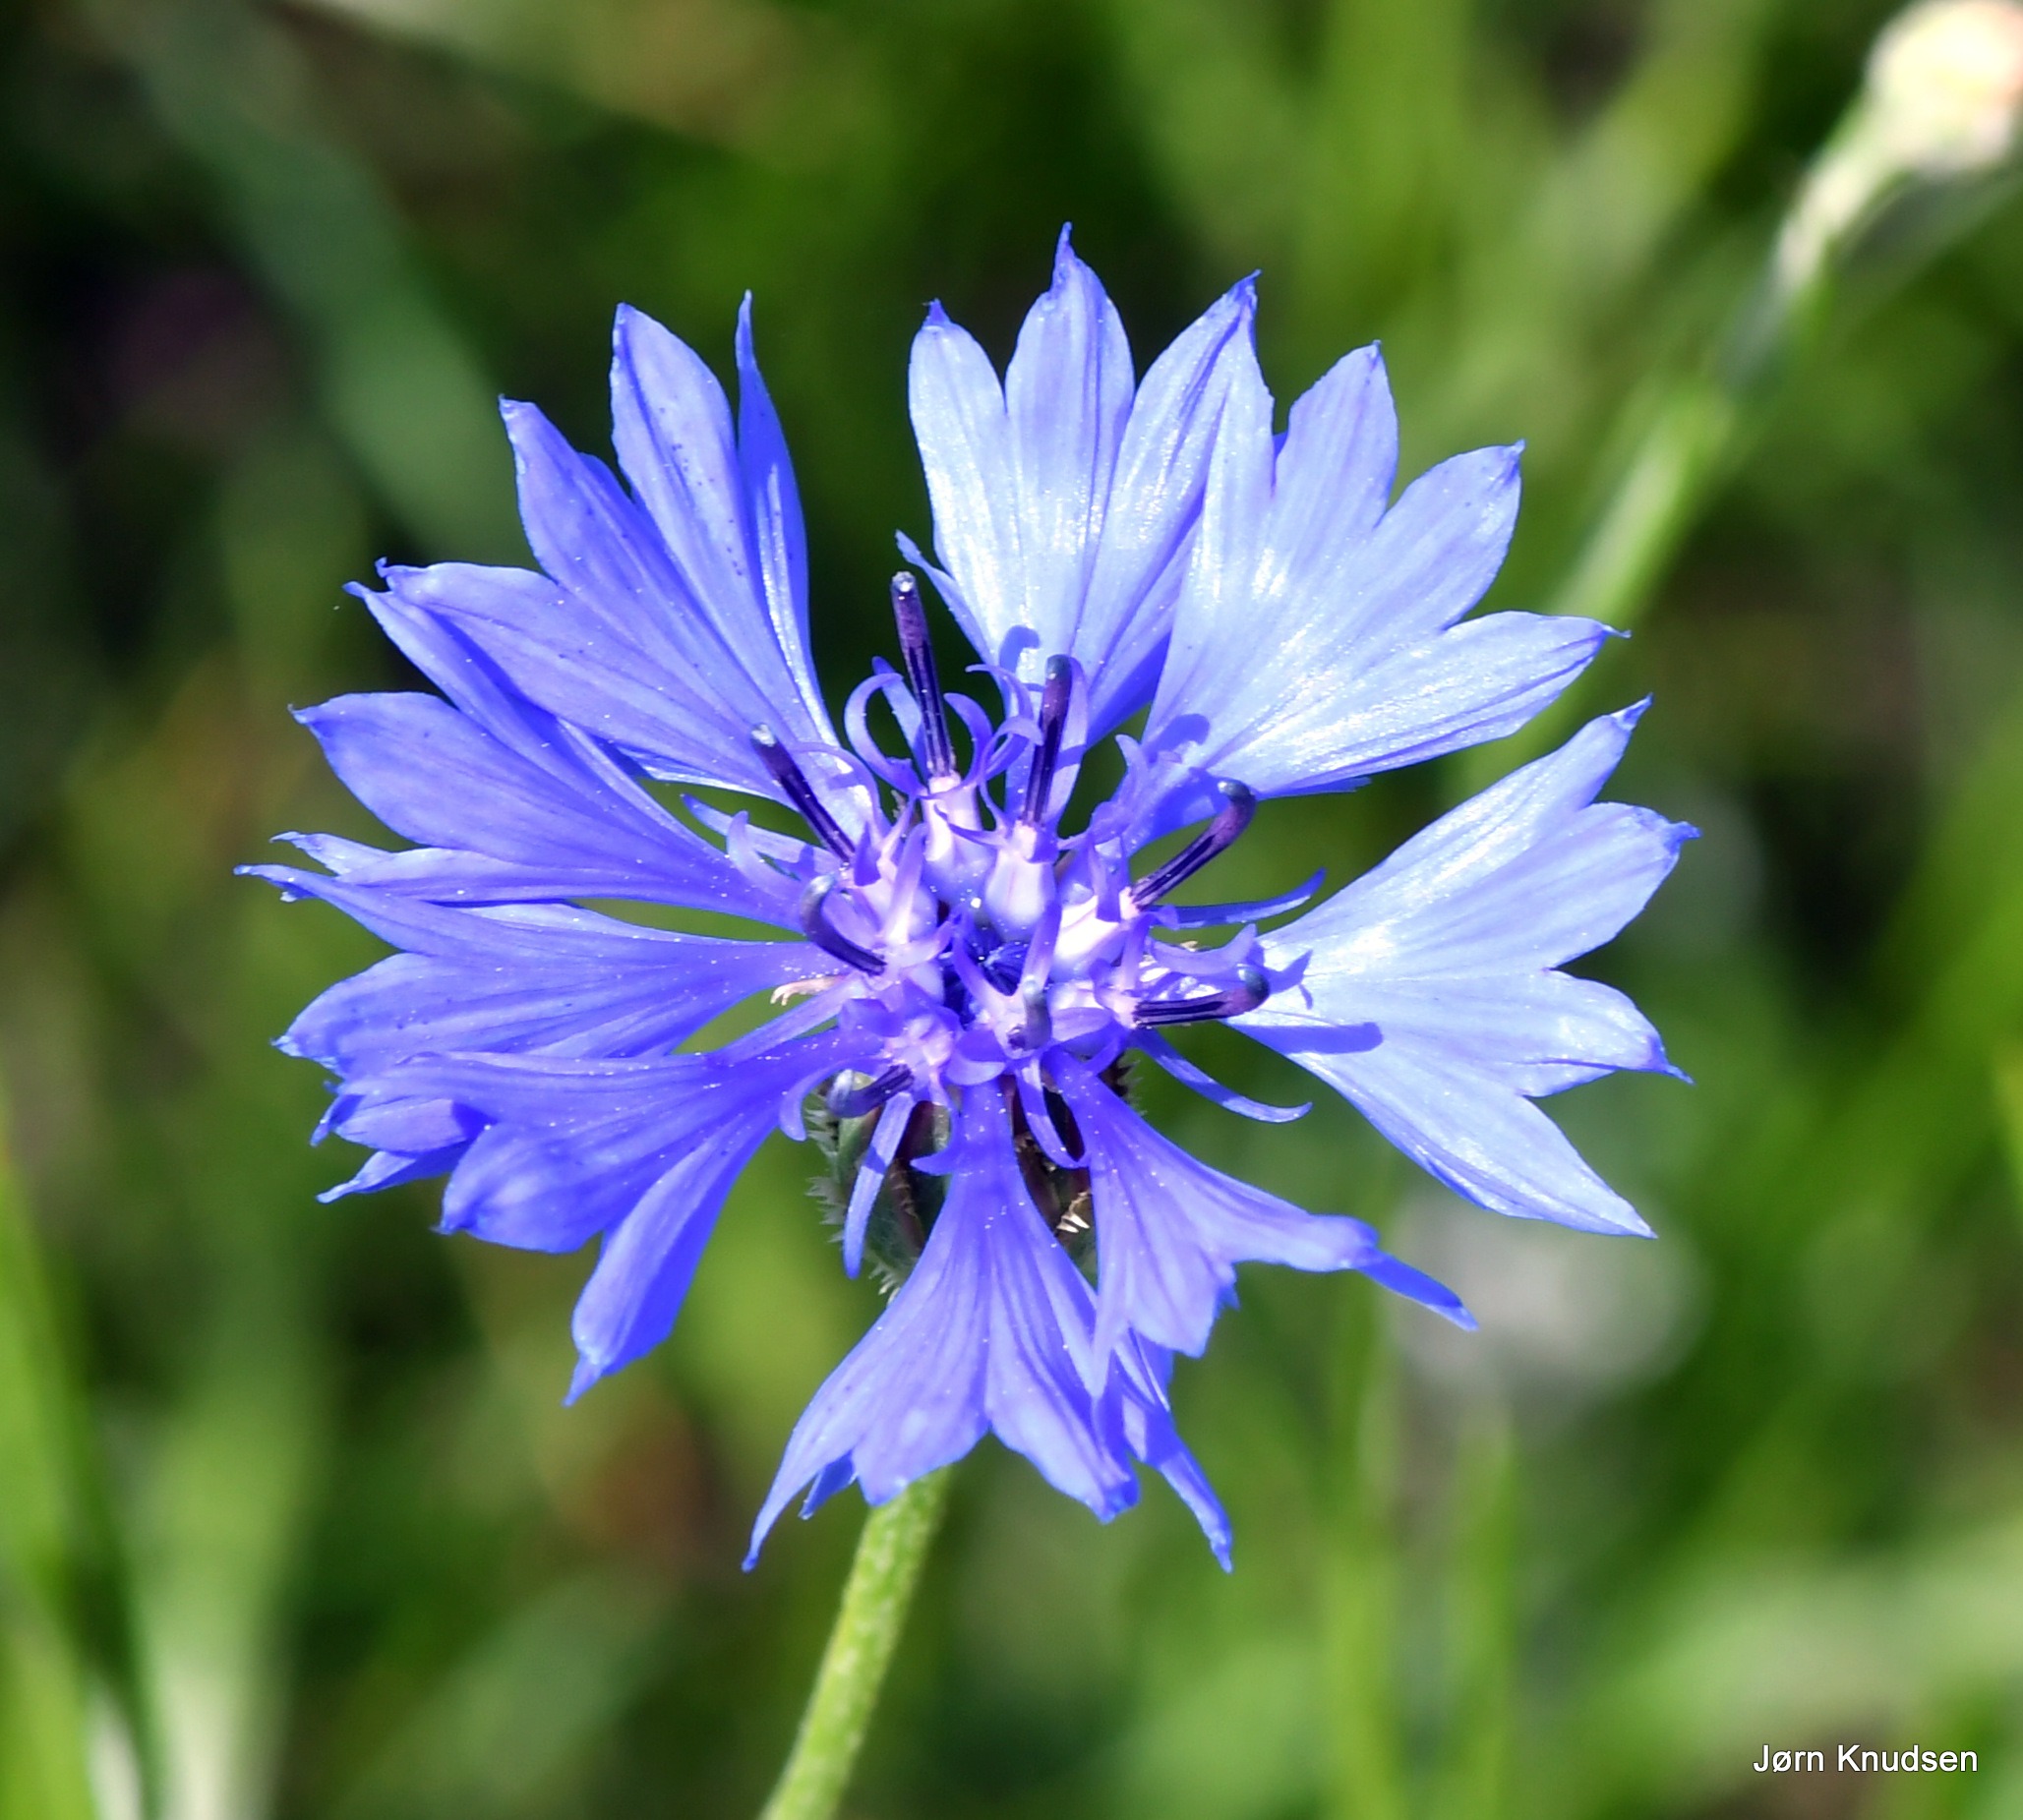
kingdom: Plantae
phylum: Tracheophyta
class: Magnoliopsida
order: Asterales
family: Asteraceae
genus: Centaurea
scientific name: Centaurea cyanus
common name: Kornblomst
